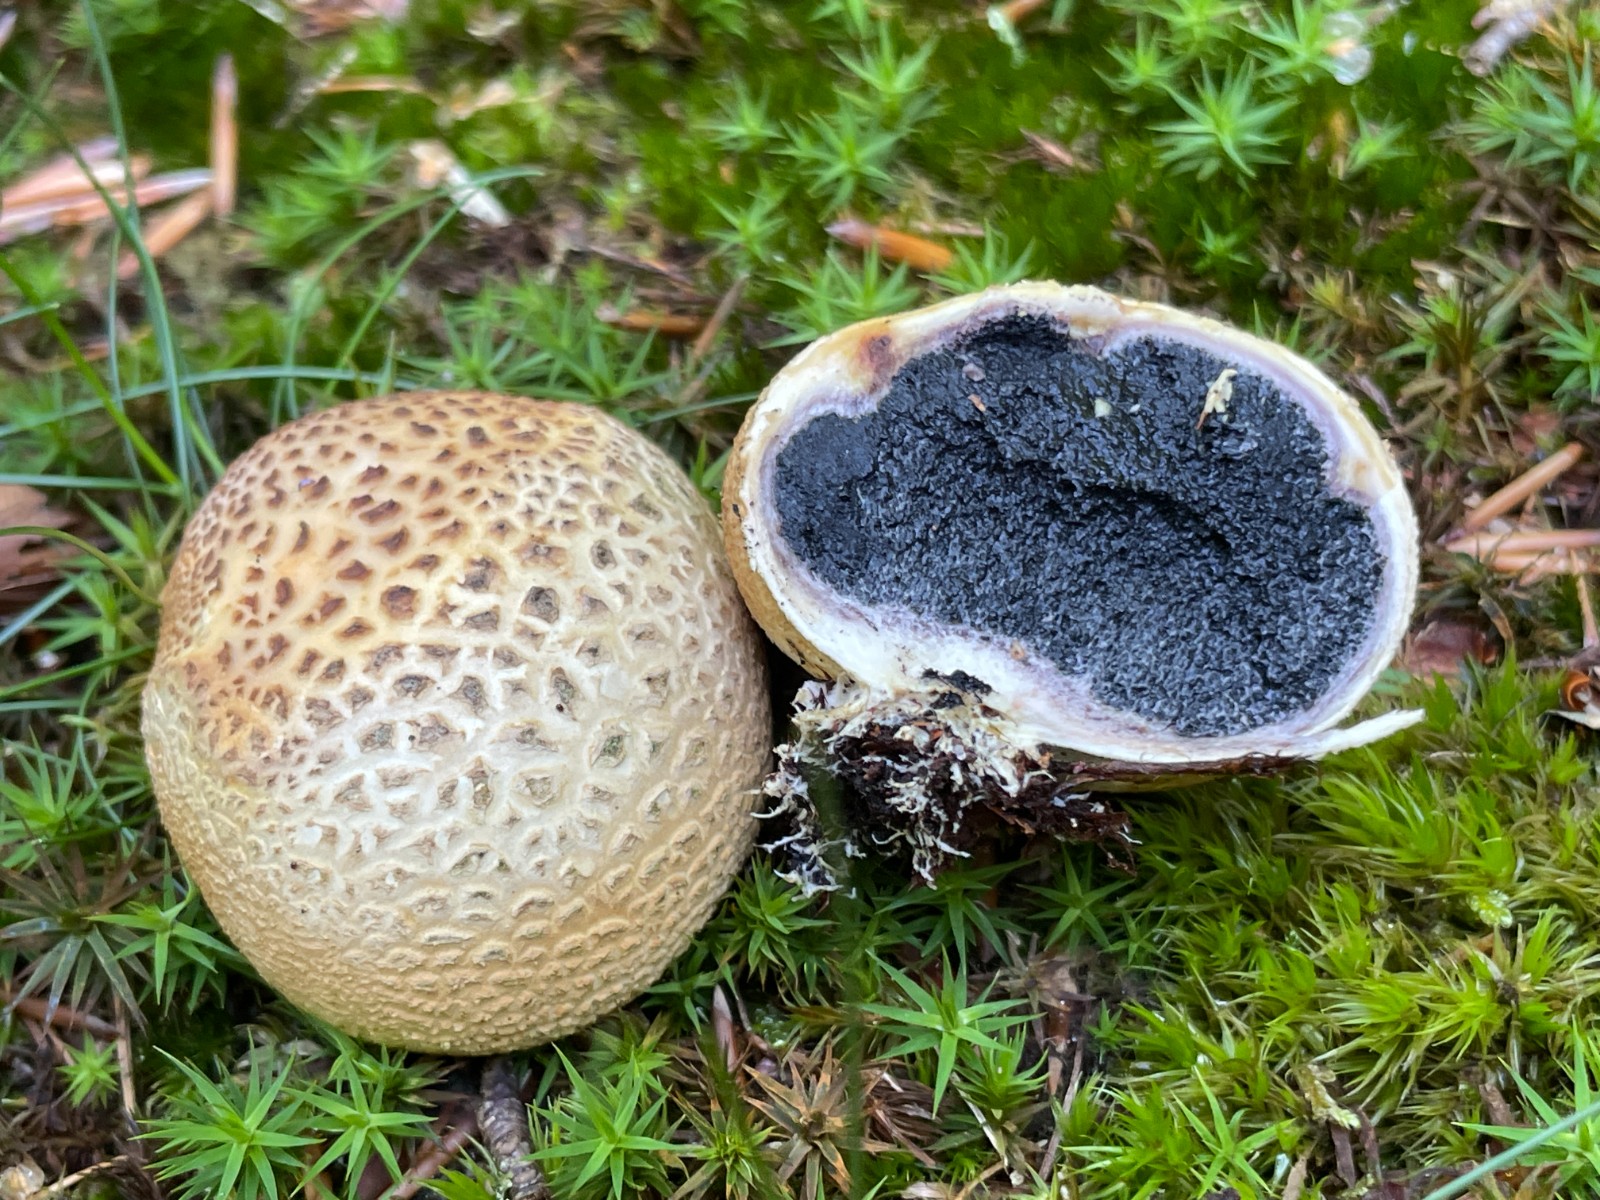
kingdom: Fungi
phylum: Basidiomycota
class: Agaricomycetes
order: Boletales
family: Sclerodermataceae
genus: Scleroderma
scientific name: Scleroderma citrinum
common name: almindelig bruskbold
